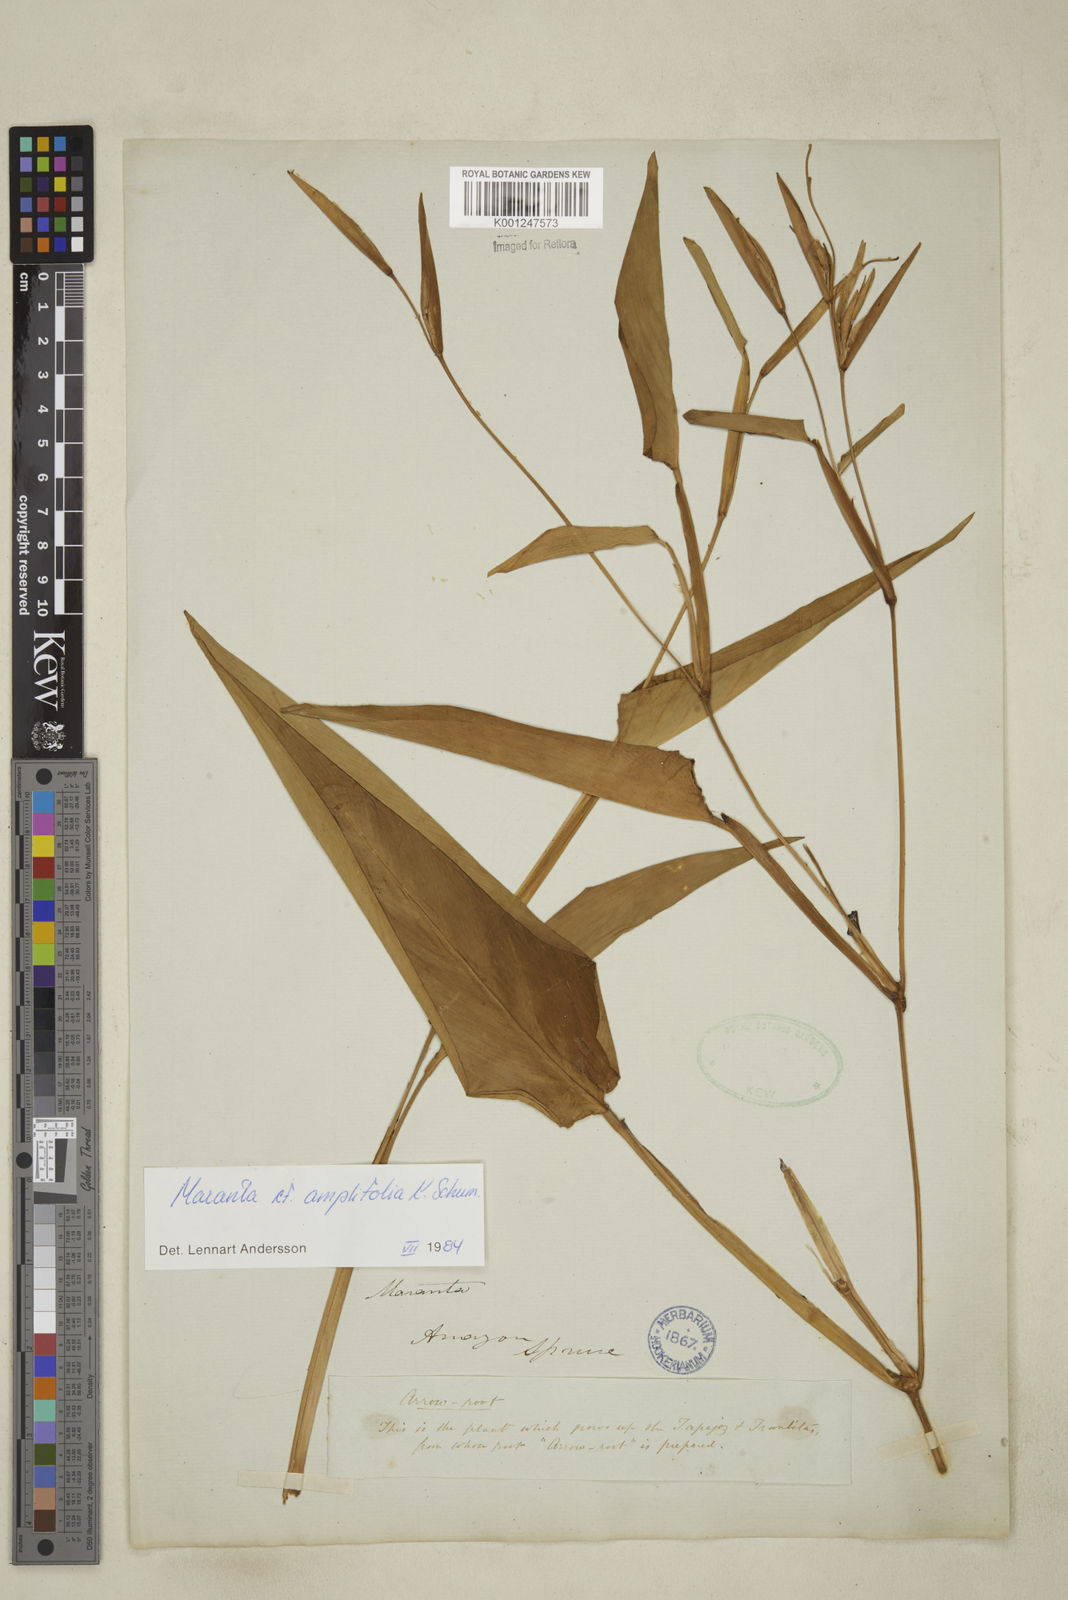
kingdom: Plantae
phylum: Tracheophyta
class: Liliopsida
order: Zingiberales
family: Marantaceae
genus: Maranta
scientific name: Maranta amplifolia
